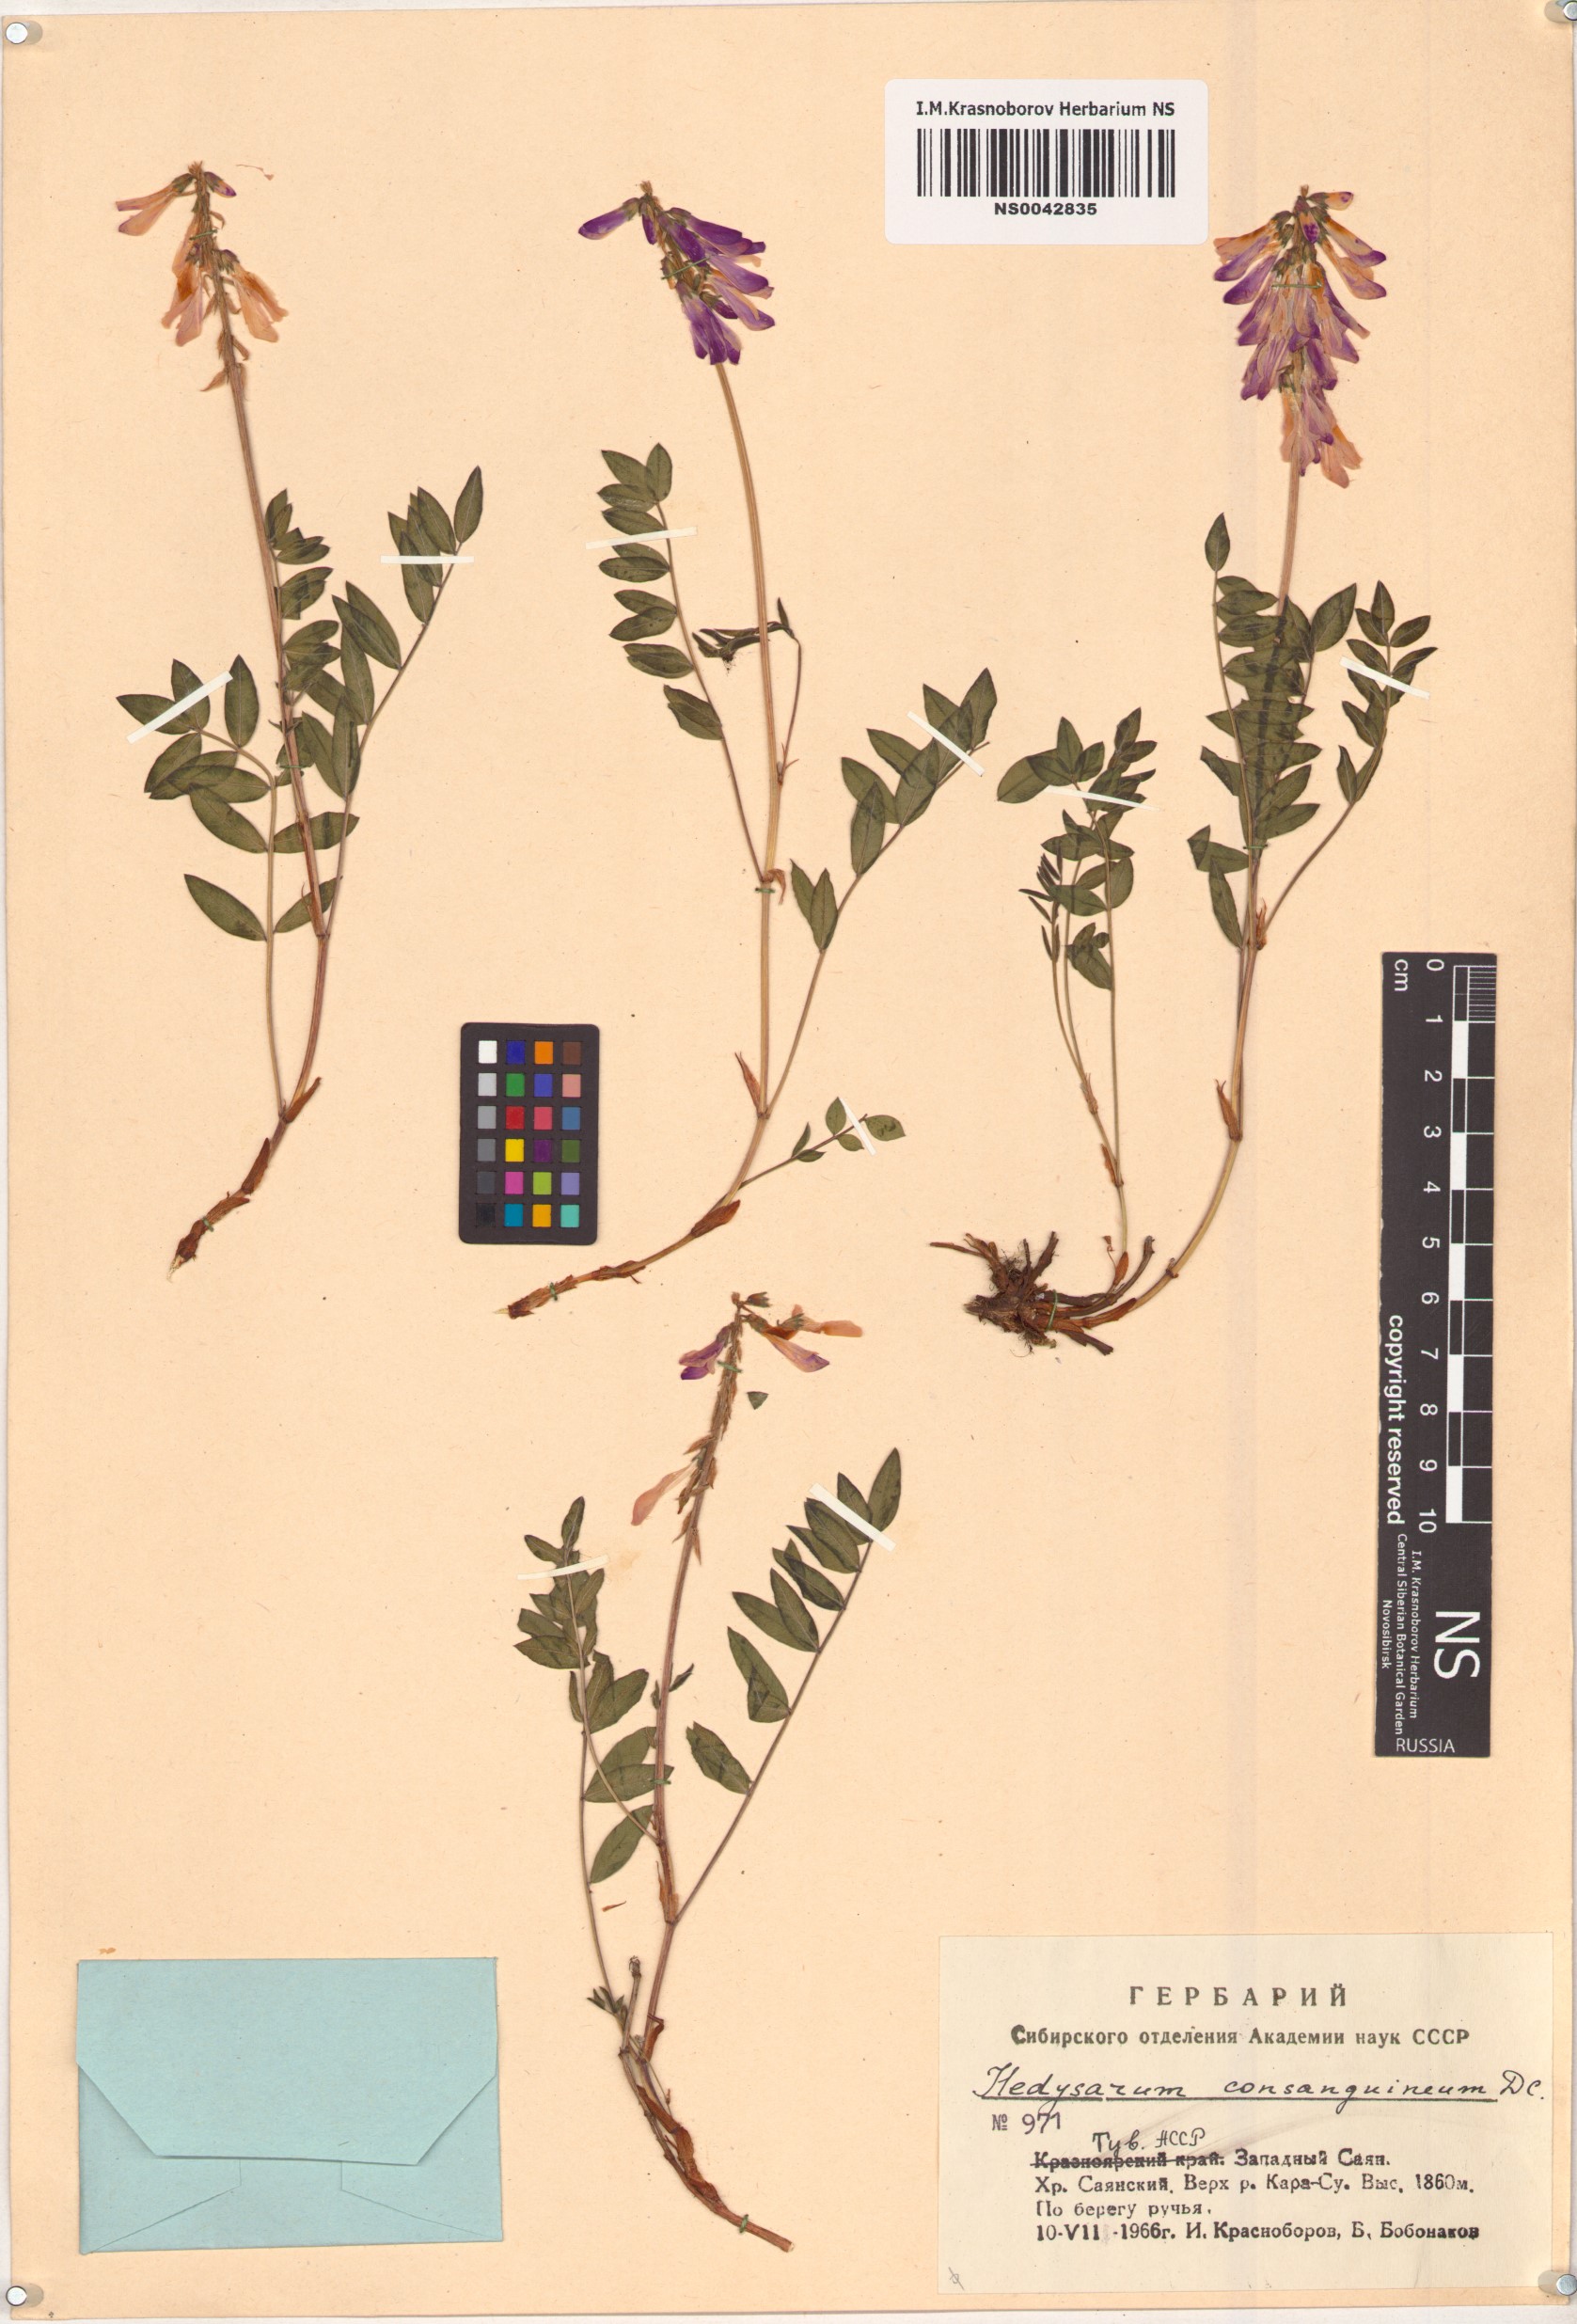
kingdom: Plantae
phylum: Tracheophyta
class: Magnoliopsida
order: Fabales
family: Fabaceae
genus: Hedysarum
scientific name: Hedysarum consanguineum
